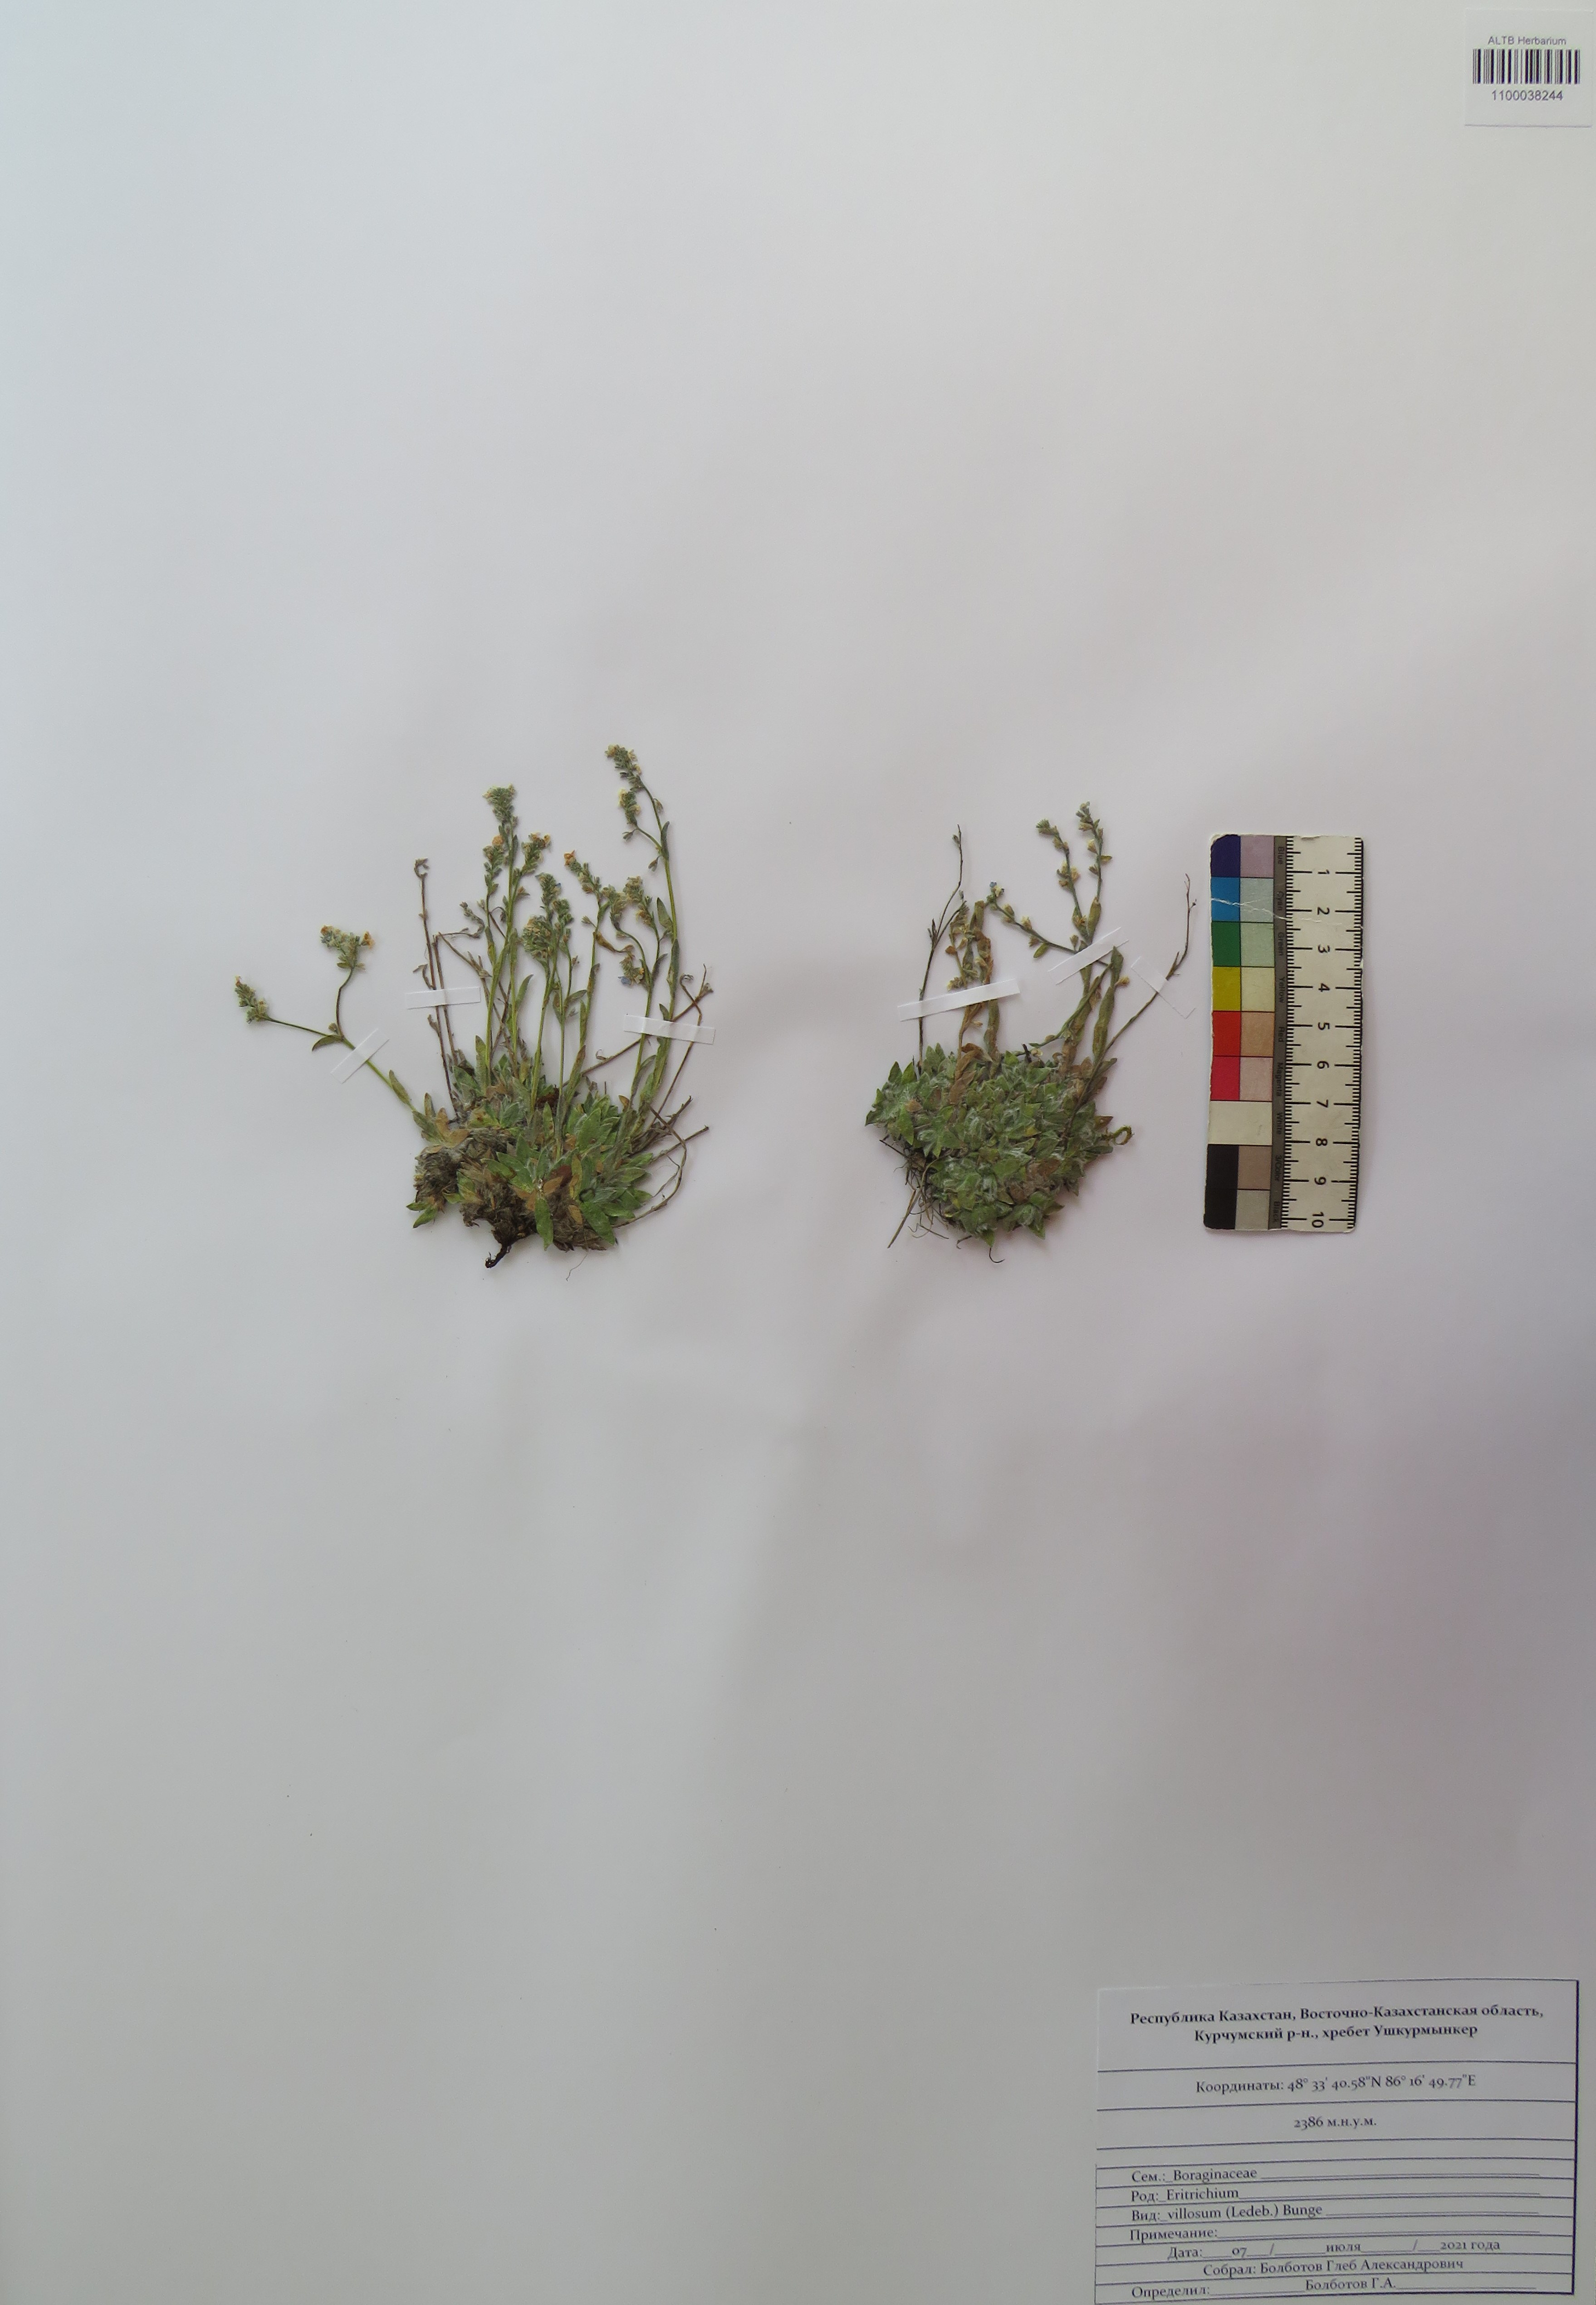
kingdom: Plantae
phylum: Tracheophyta
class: Magnoliopsida
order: Boraginales
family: Boraginaceae
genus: Eritrichium
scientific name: Eritrichium villosum
